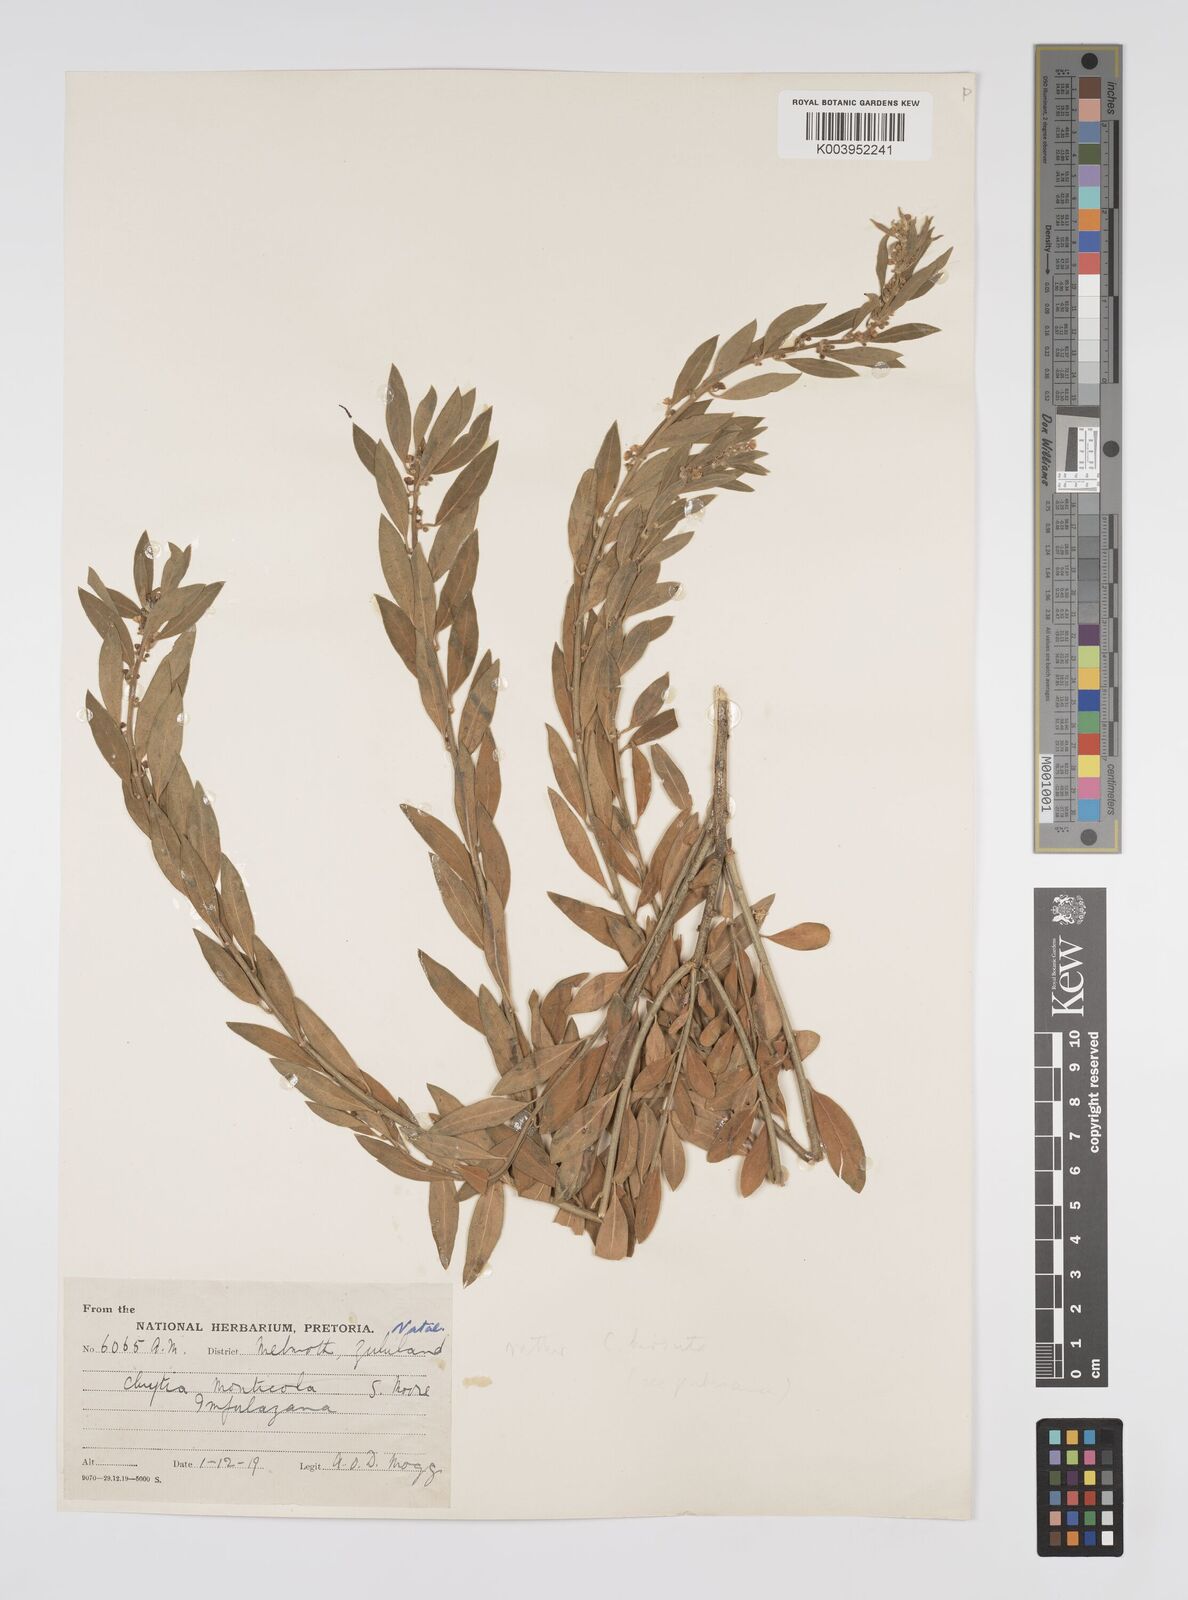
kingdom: Plantae
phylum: Tracheophyta
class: Magnoliopsida
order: Malpighiales
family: Peraceae
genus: Clutia
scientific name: Clutia affinis
